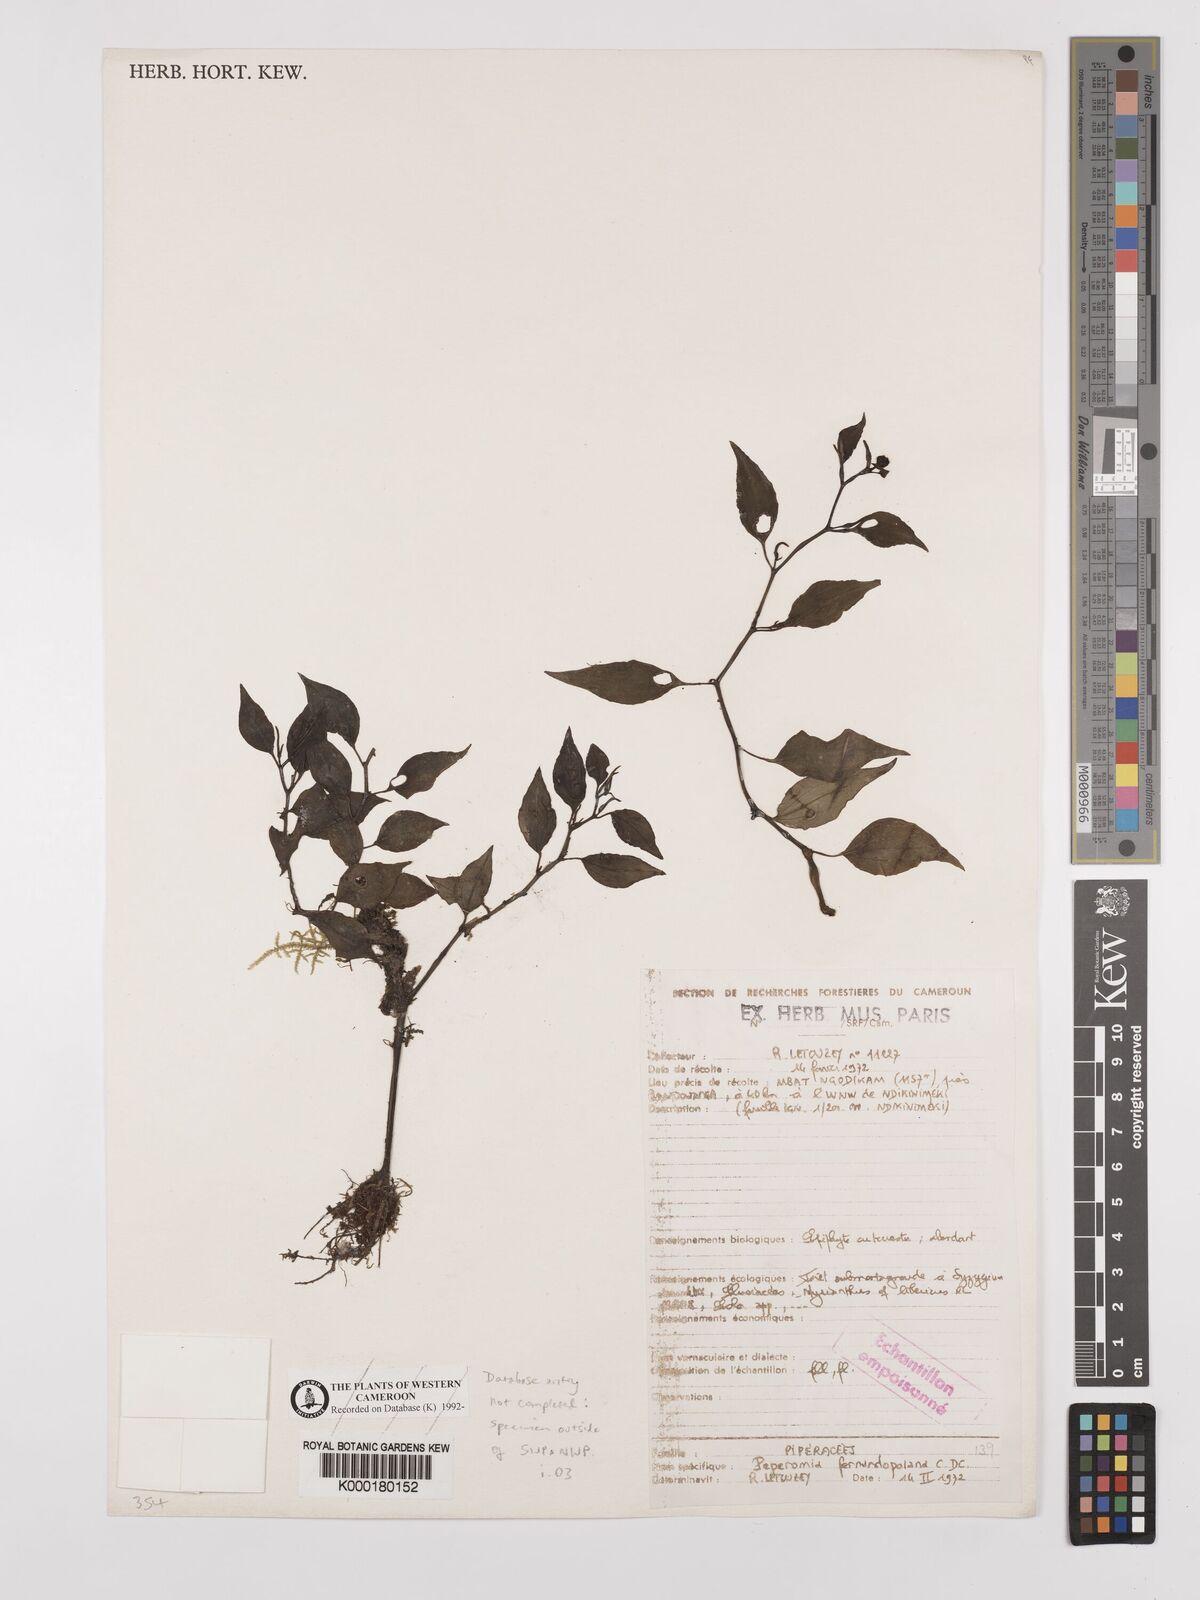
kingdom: Plantae
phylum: Tracheophyta
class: Magnoliopsida
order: Piperales
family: Piperaceae
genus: Peperomia
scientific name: Peperomia fernandopoiana
